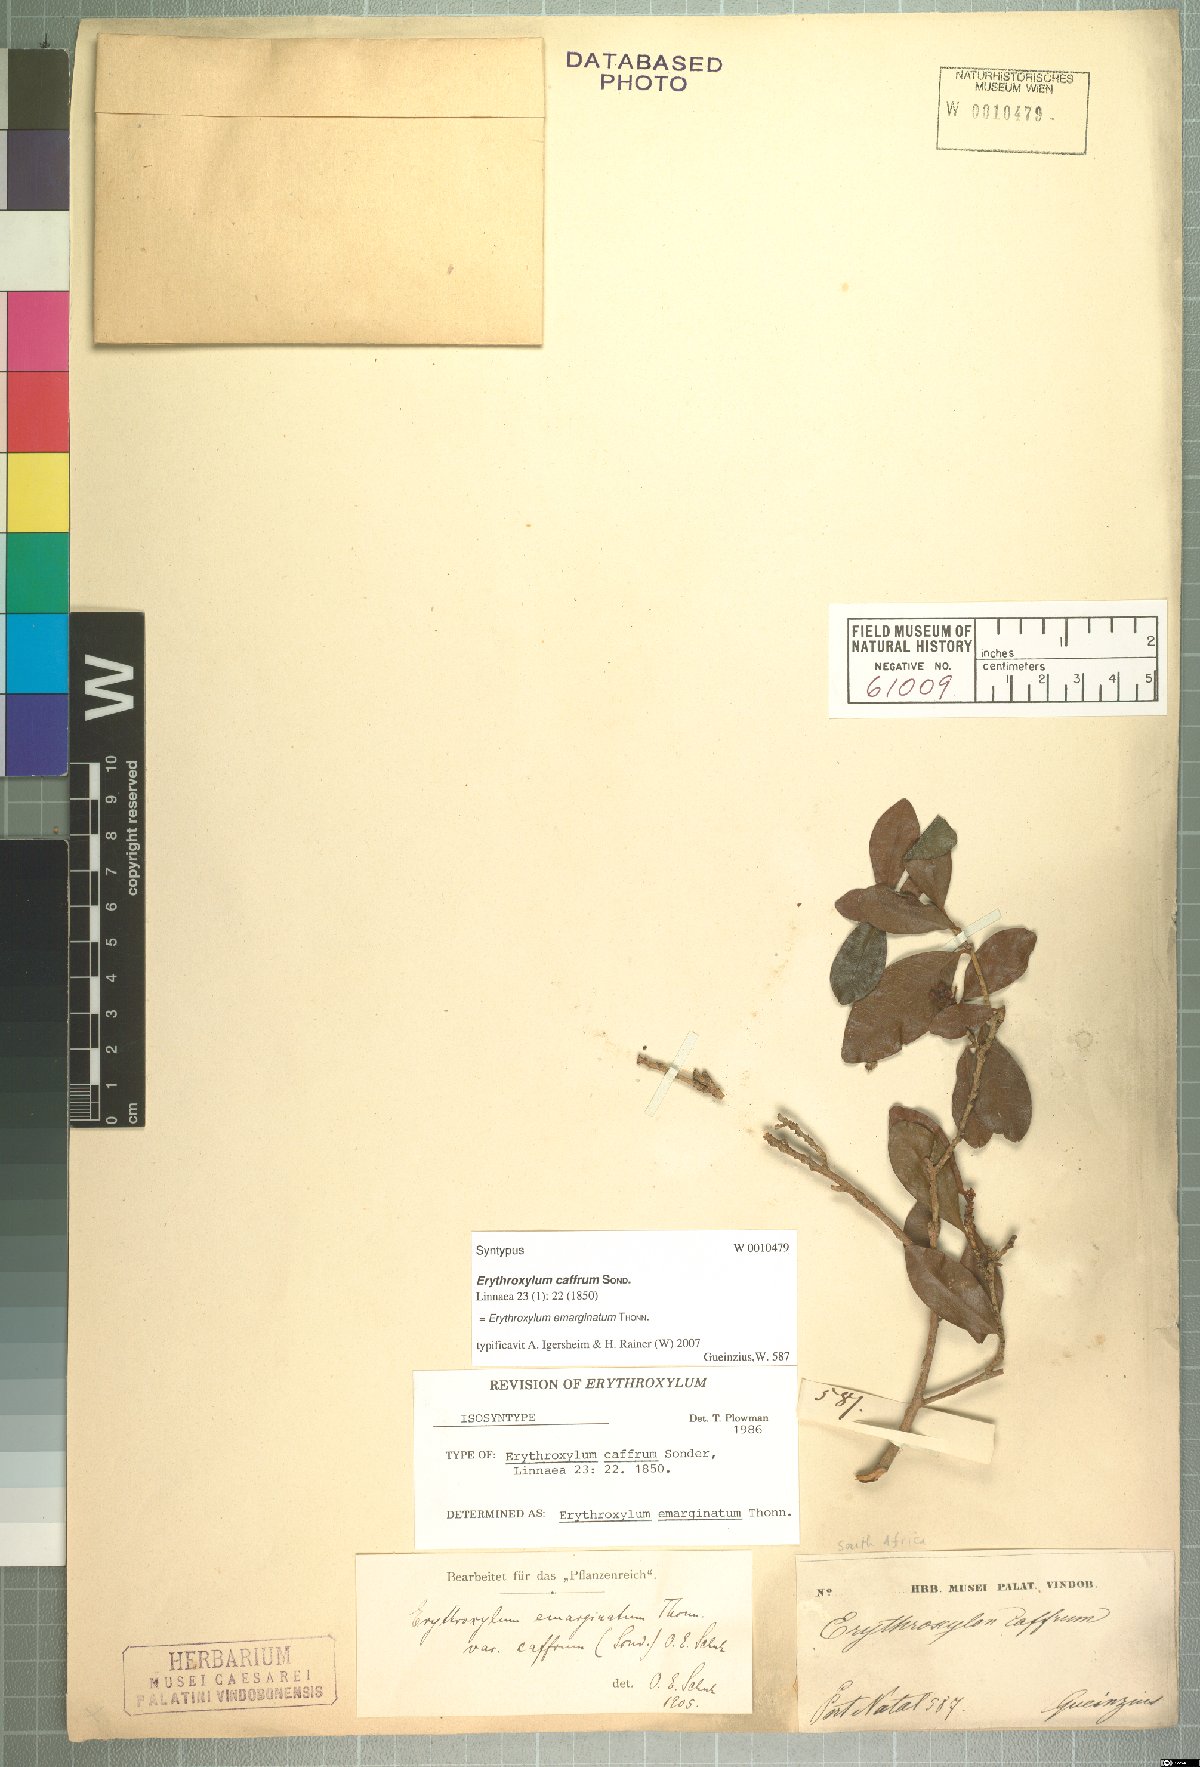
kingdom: Plantae
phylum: Tracheophyta
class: Magnoliopsida
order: Malpighiales
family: Erythroxylaceae
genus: Erythroxylum
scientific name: Erythroxylum emarginatum
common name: African coca-tree
